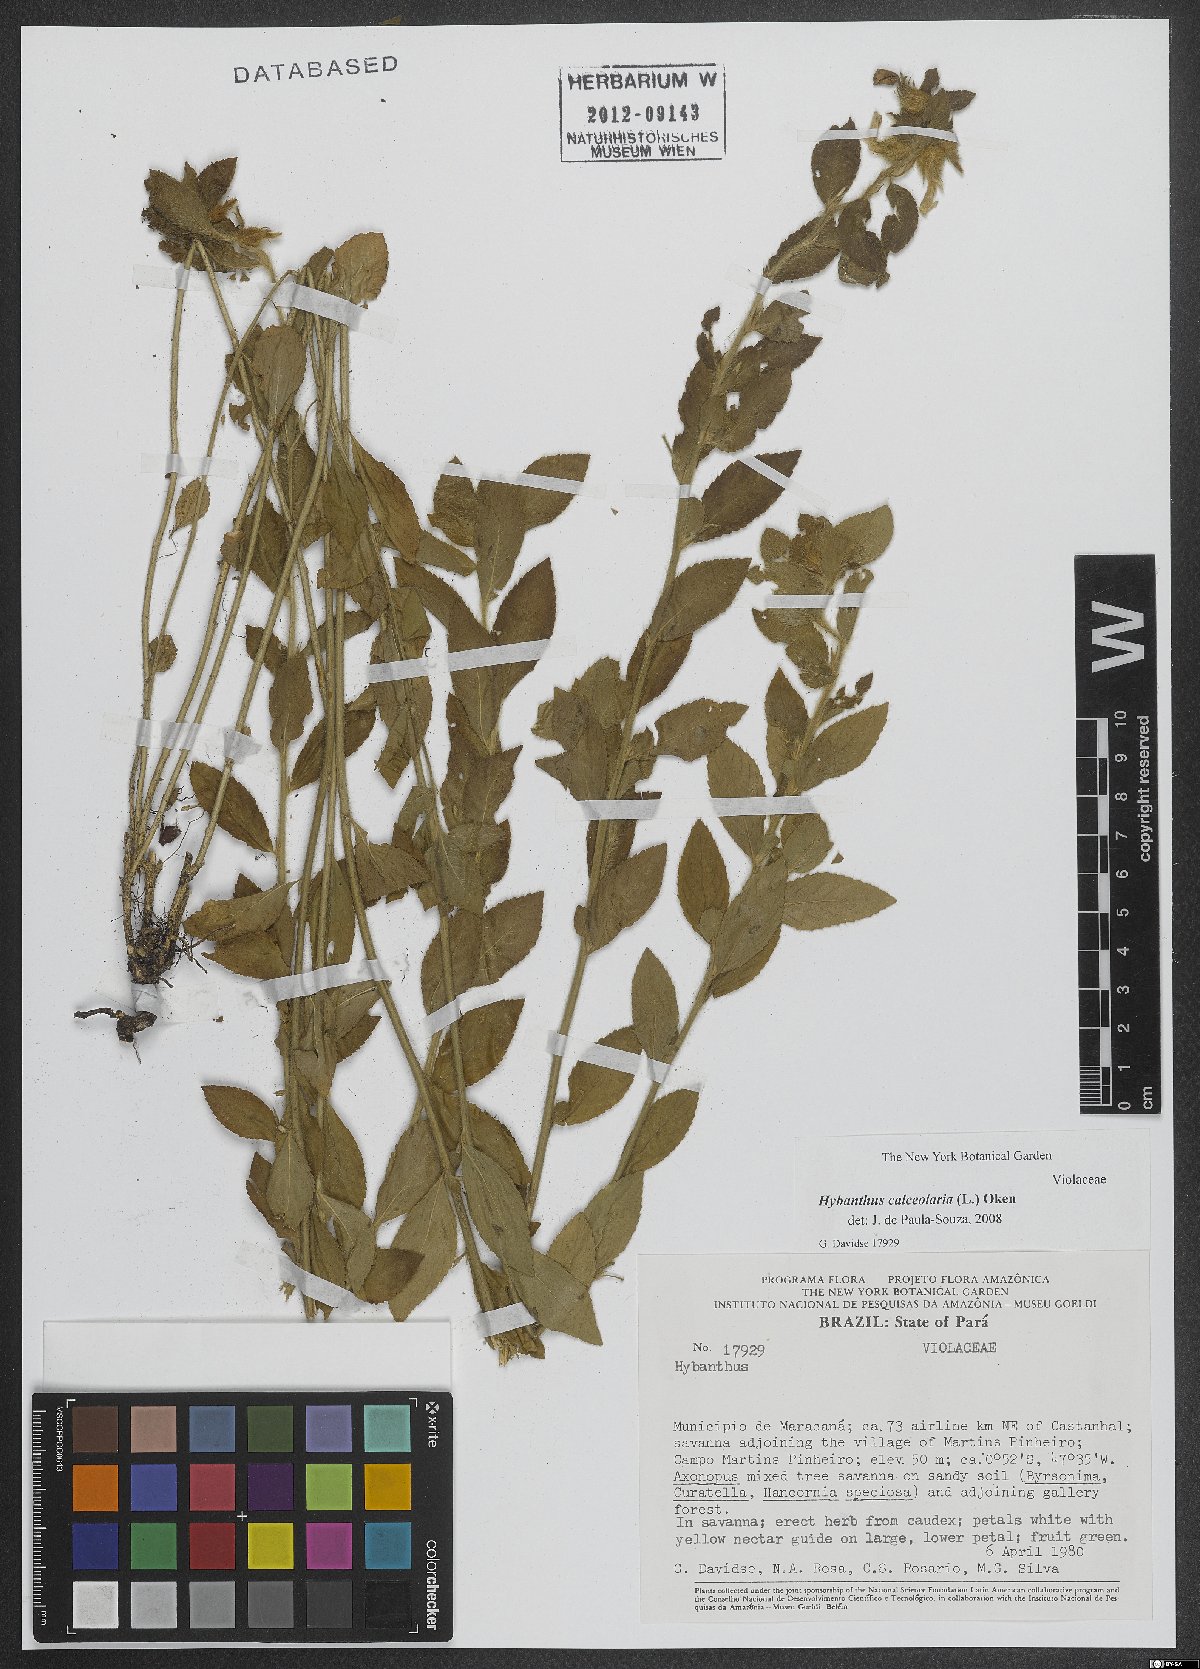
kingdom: Plantae
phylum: Tracheophyta
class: Magnoliopsida
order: Malpighiales
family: Violaceae
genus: Pombalia
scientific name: Pombalia calceolaria
